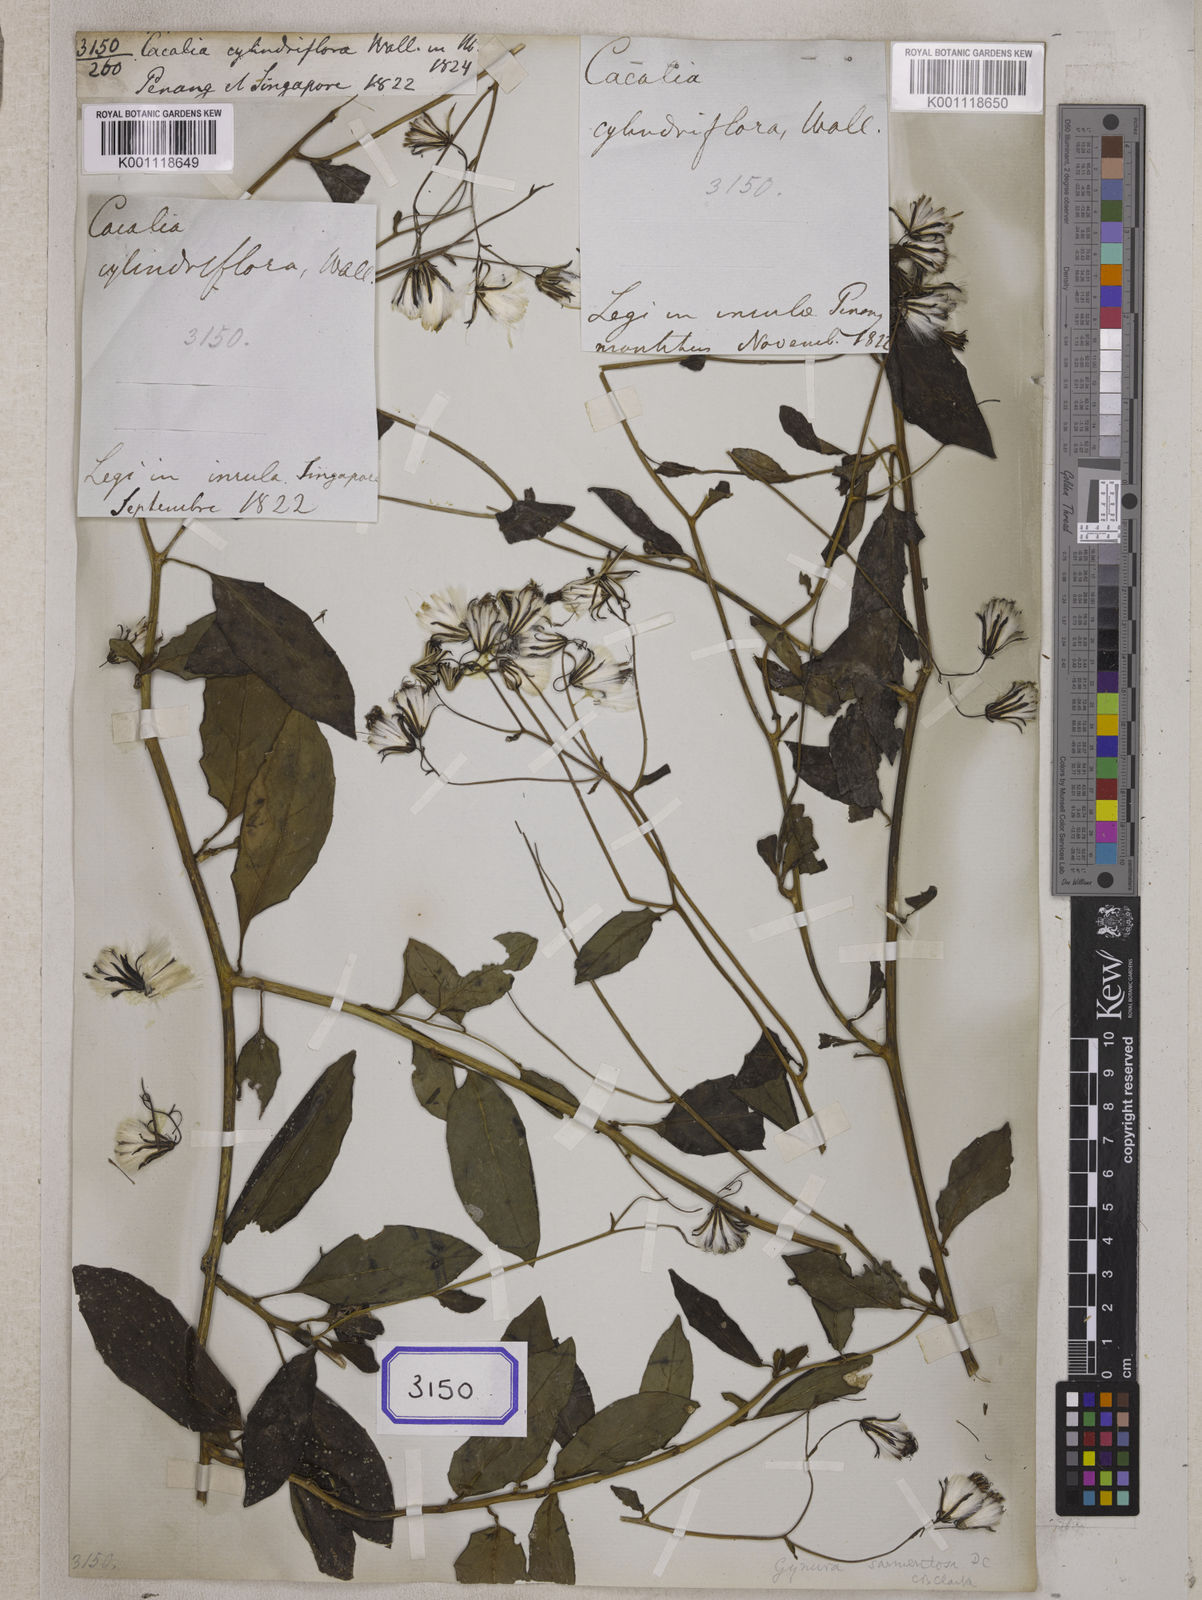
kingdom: Plantae
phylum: Tracheophyta
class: Magnoliopsida
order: Asterales
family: Asteraceae
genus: Gynura
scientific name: Gynura procumbens
